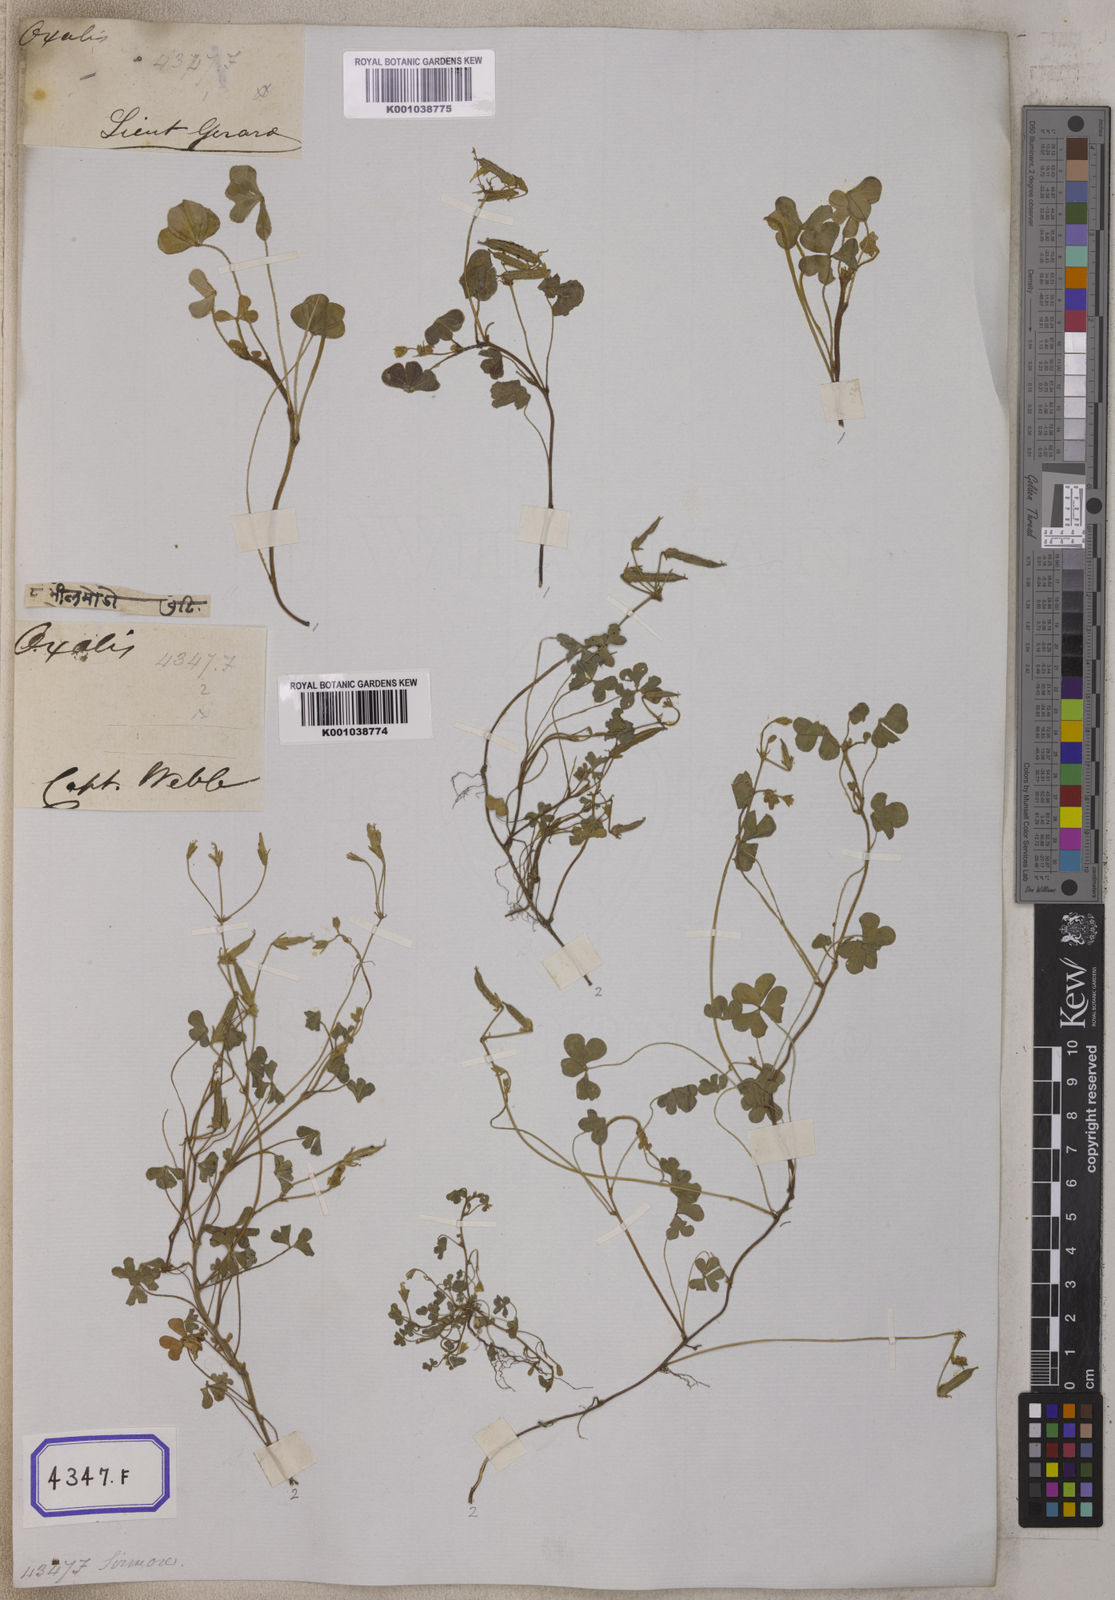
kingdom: Plantae
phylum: Tracheophyta
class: Magnoliopsida
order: Oxalidales
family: Oxalidaceae
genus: Oxalis
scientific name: Oxalis corniculata
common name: Procumbent yellow-sorrel
